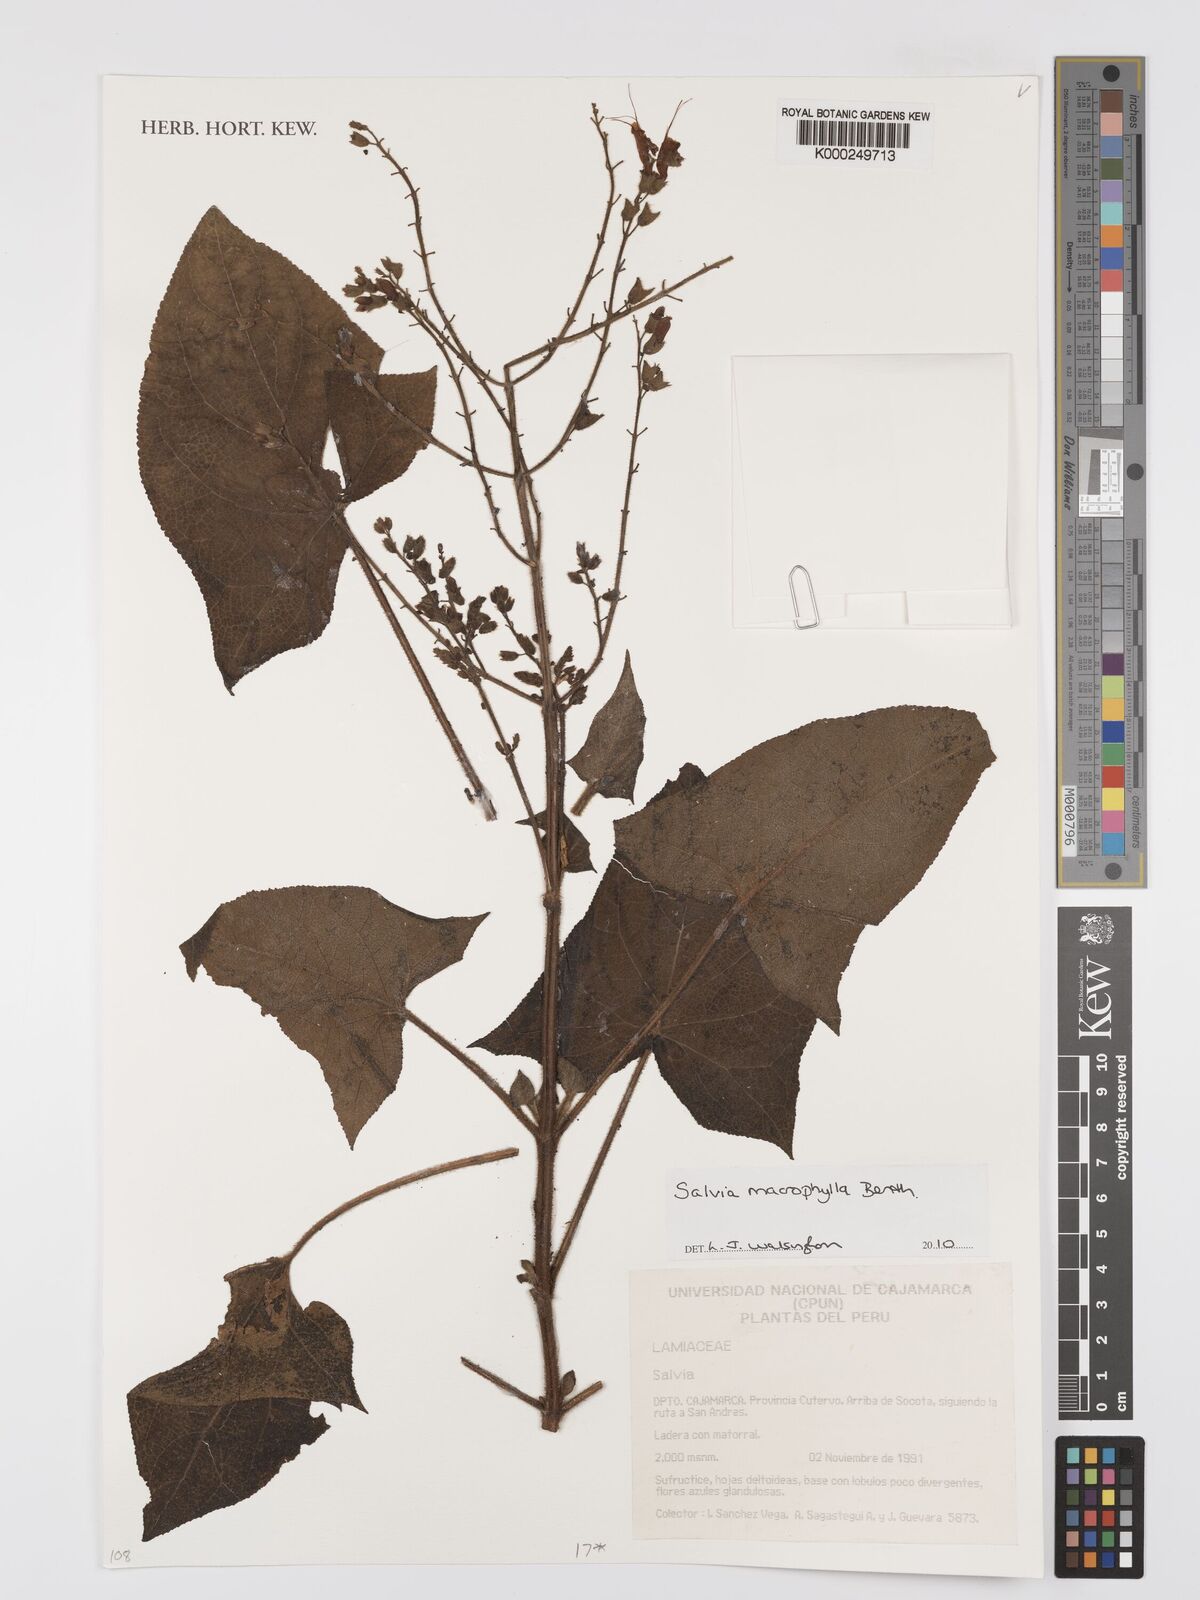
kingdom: Plantae
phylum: Tracheophyta
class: Magnoliopsida
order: Lamiales
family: Lamiaceae
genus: Salvia
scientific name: Salvia macrophylla
